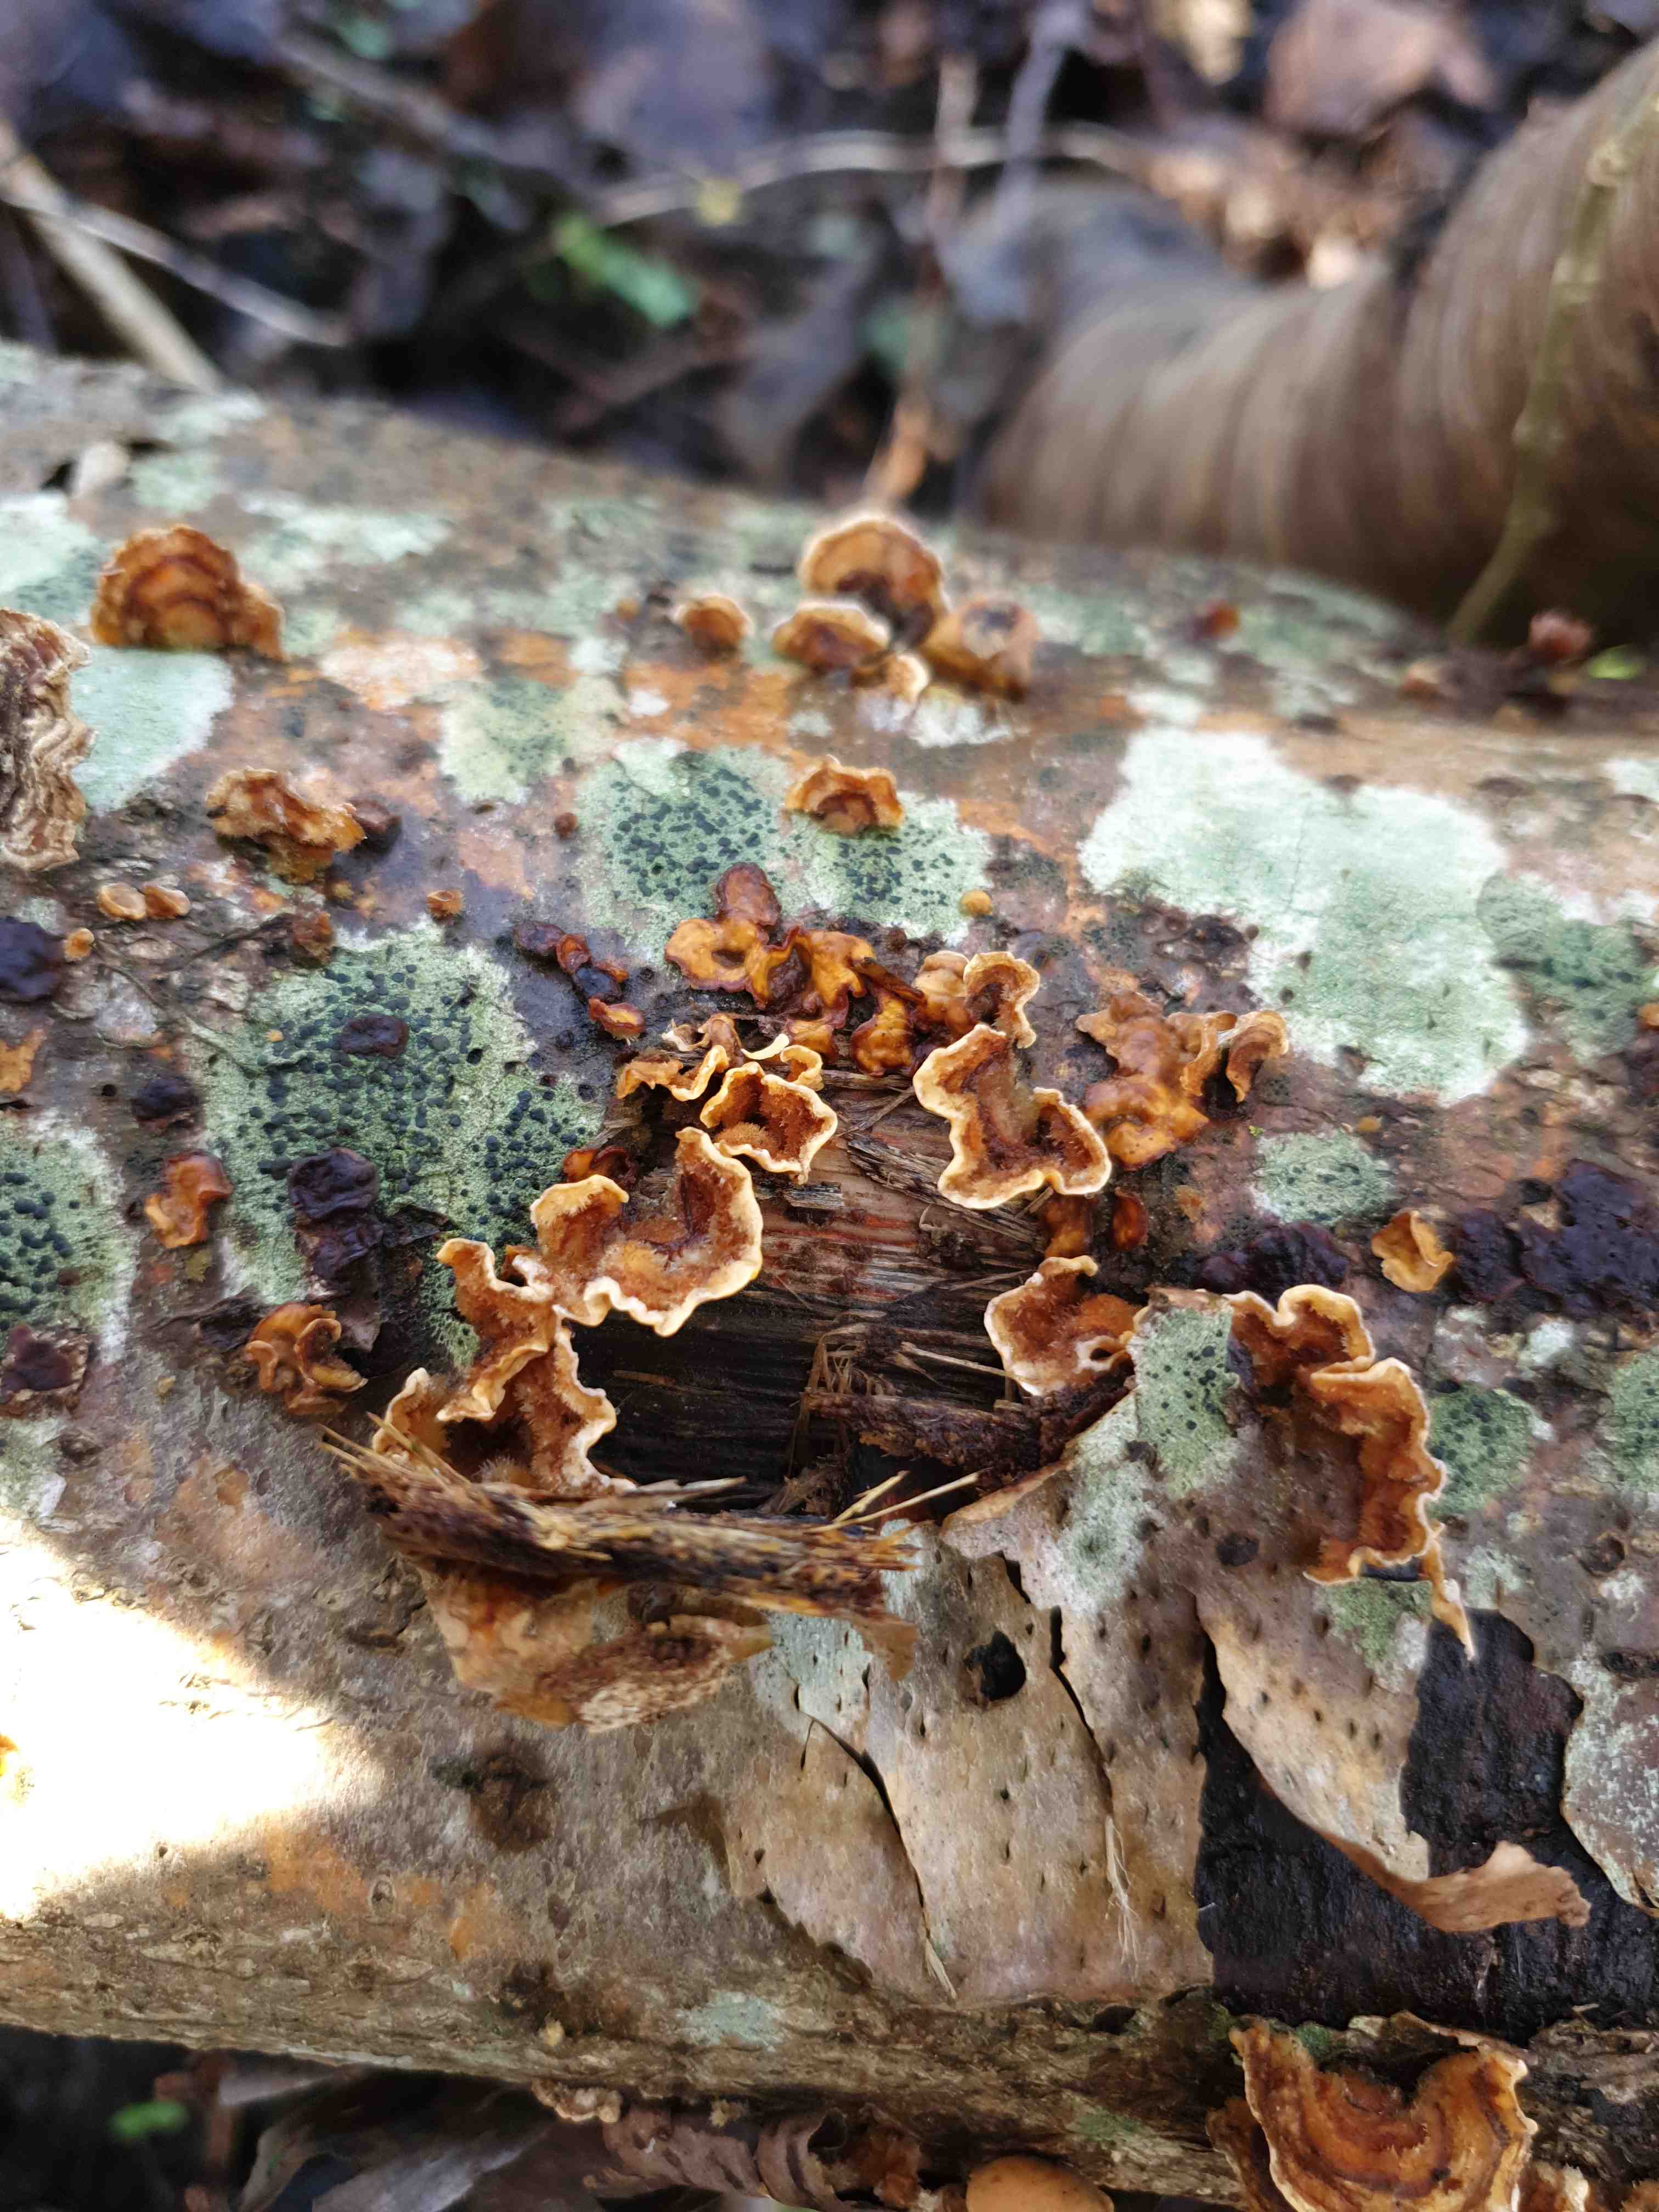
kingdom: Fungi
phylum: Basidiomycota
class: Agaricomycetes
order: Russulales
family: Stereaceae
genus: Stereum
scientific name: Stereum hirsutum
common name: håret lædersvamp
